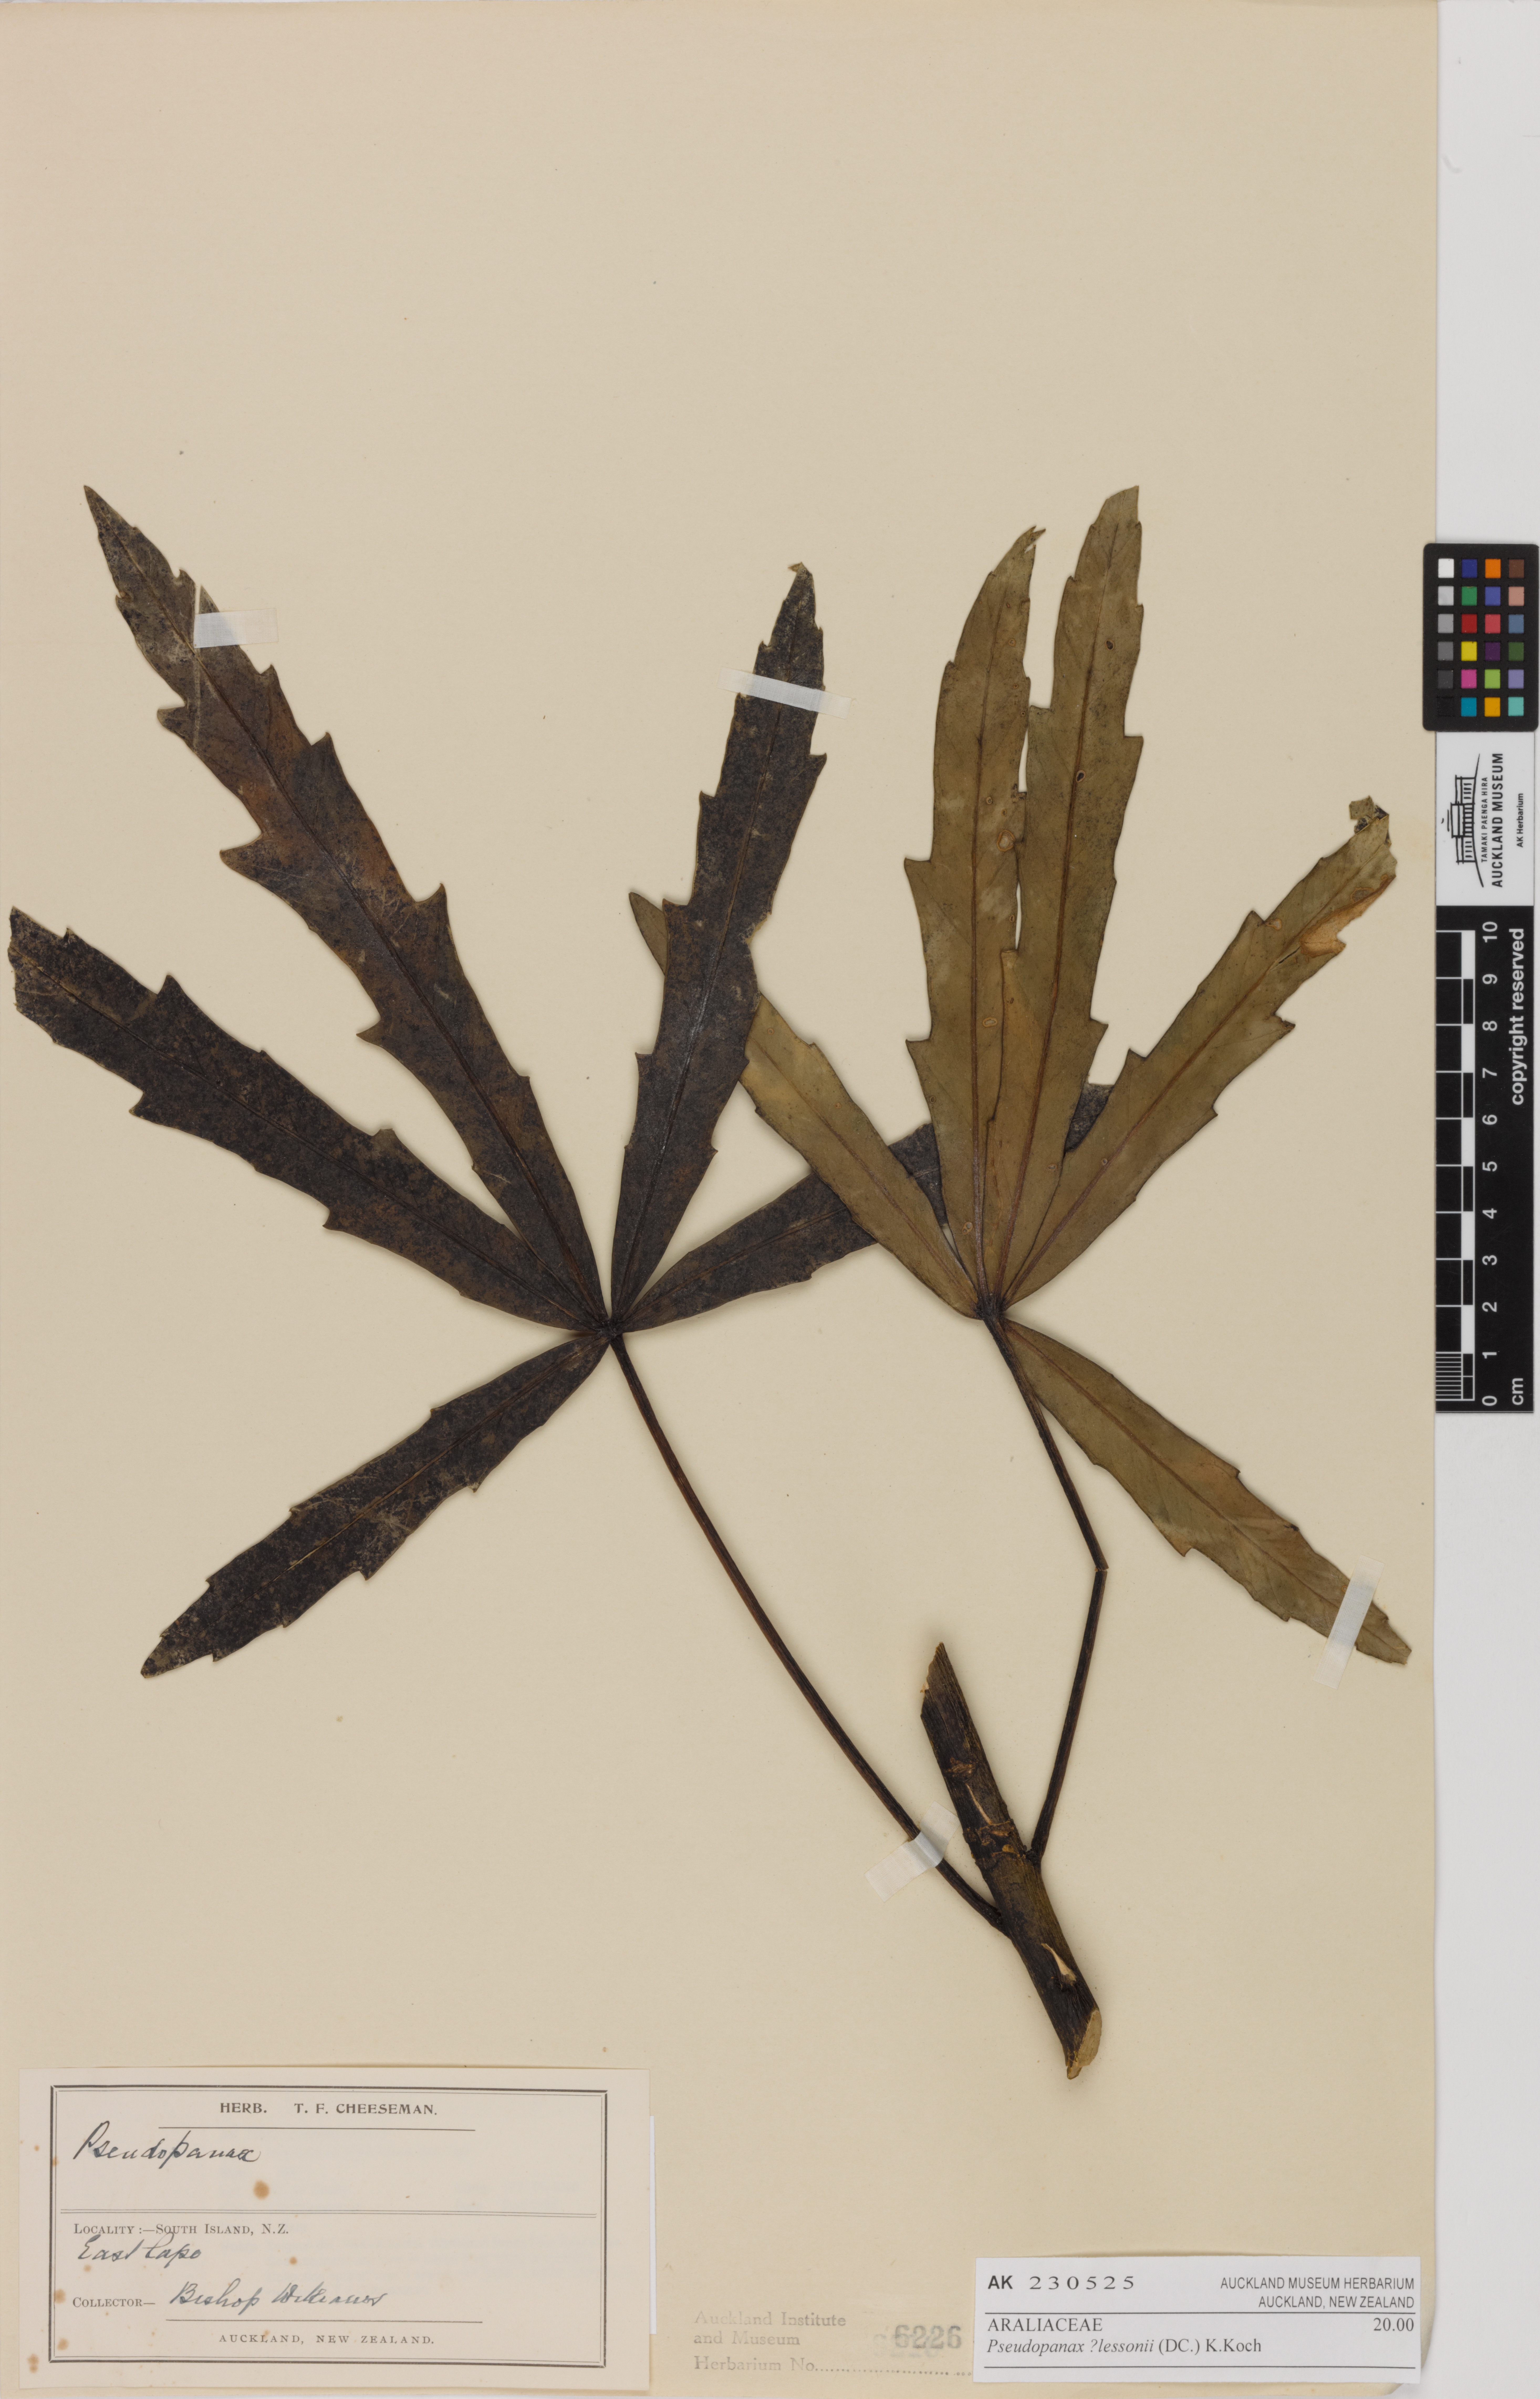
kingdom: Plantae
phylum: Tracheophyta
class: Magnoliopsida
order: Apiales
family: Araliaceae
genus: Pseudopanax
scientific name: Pseudopanax lessonii
